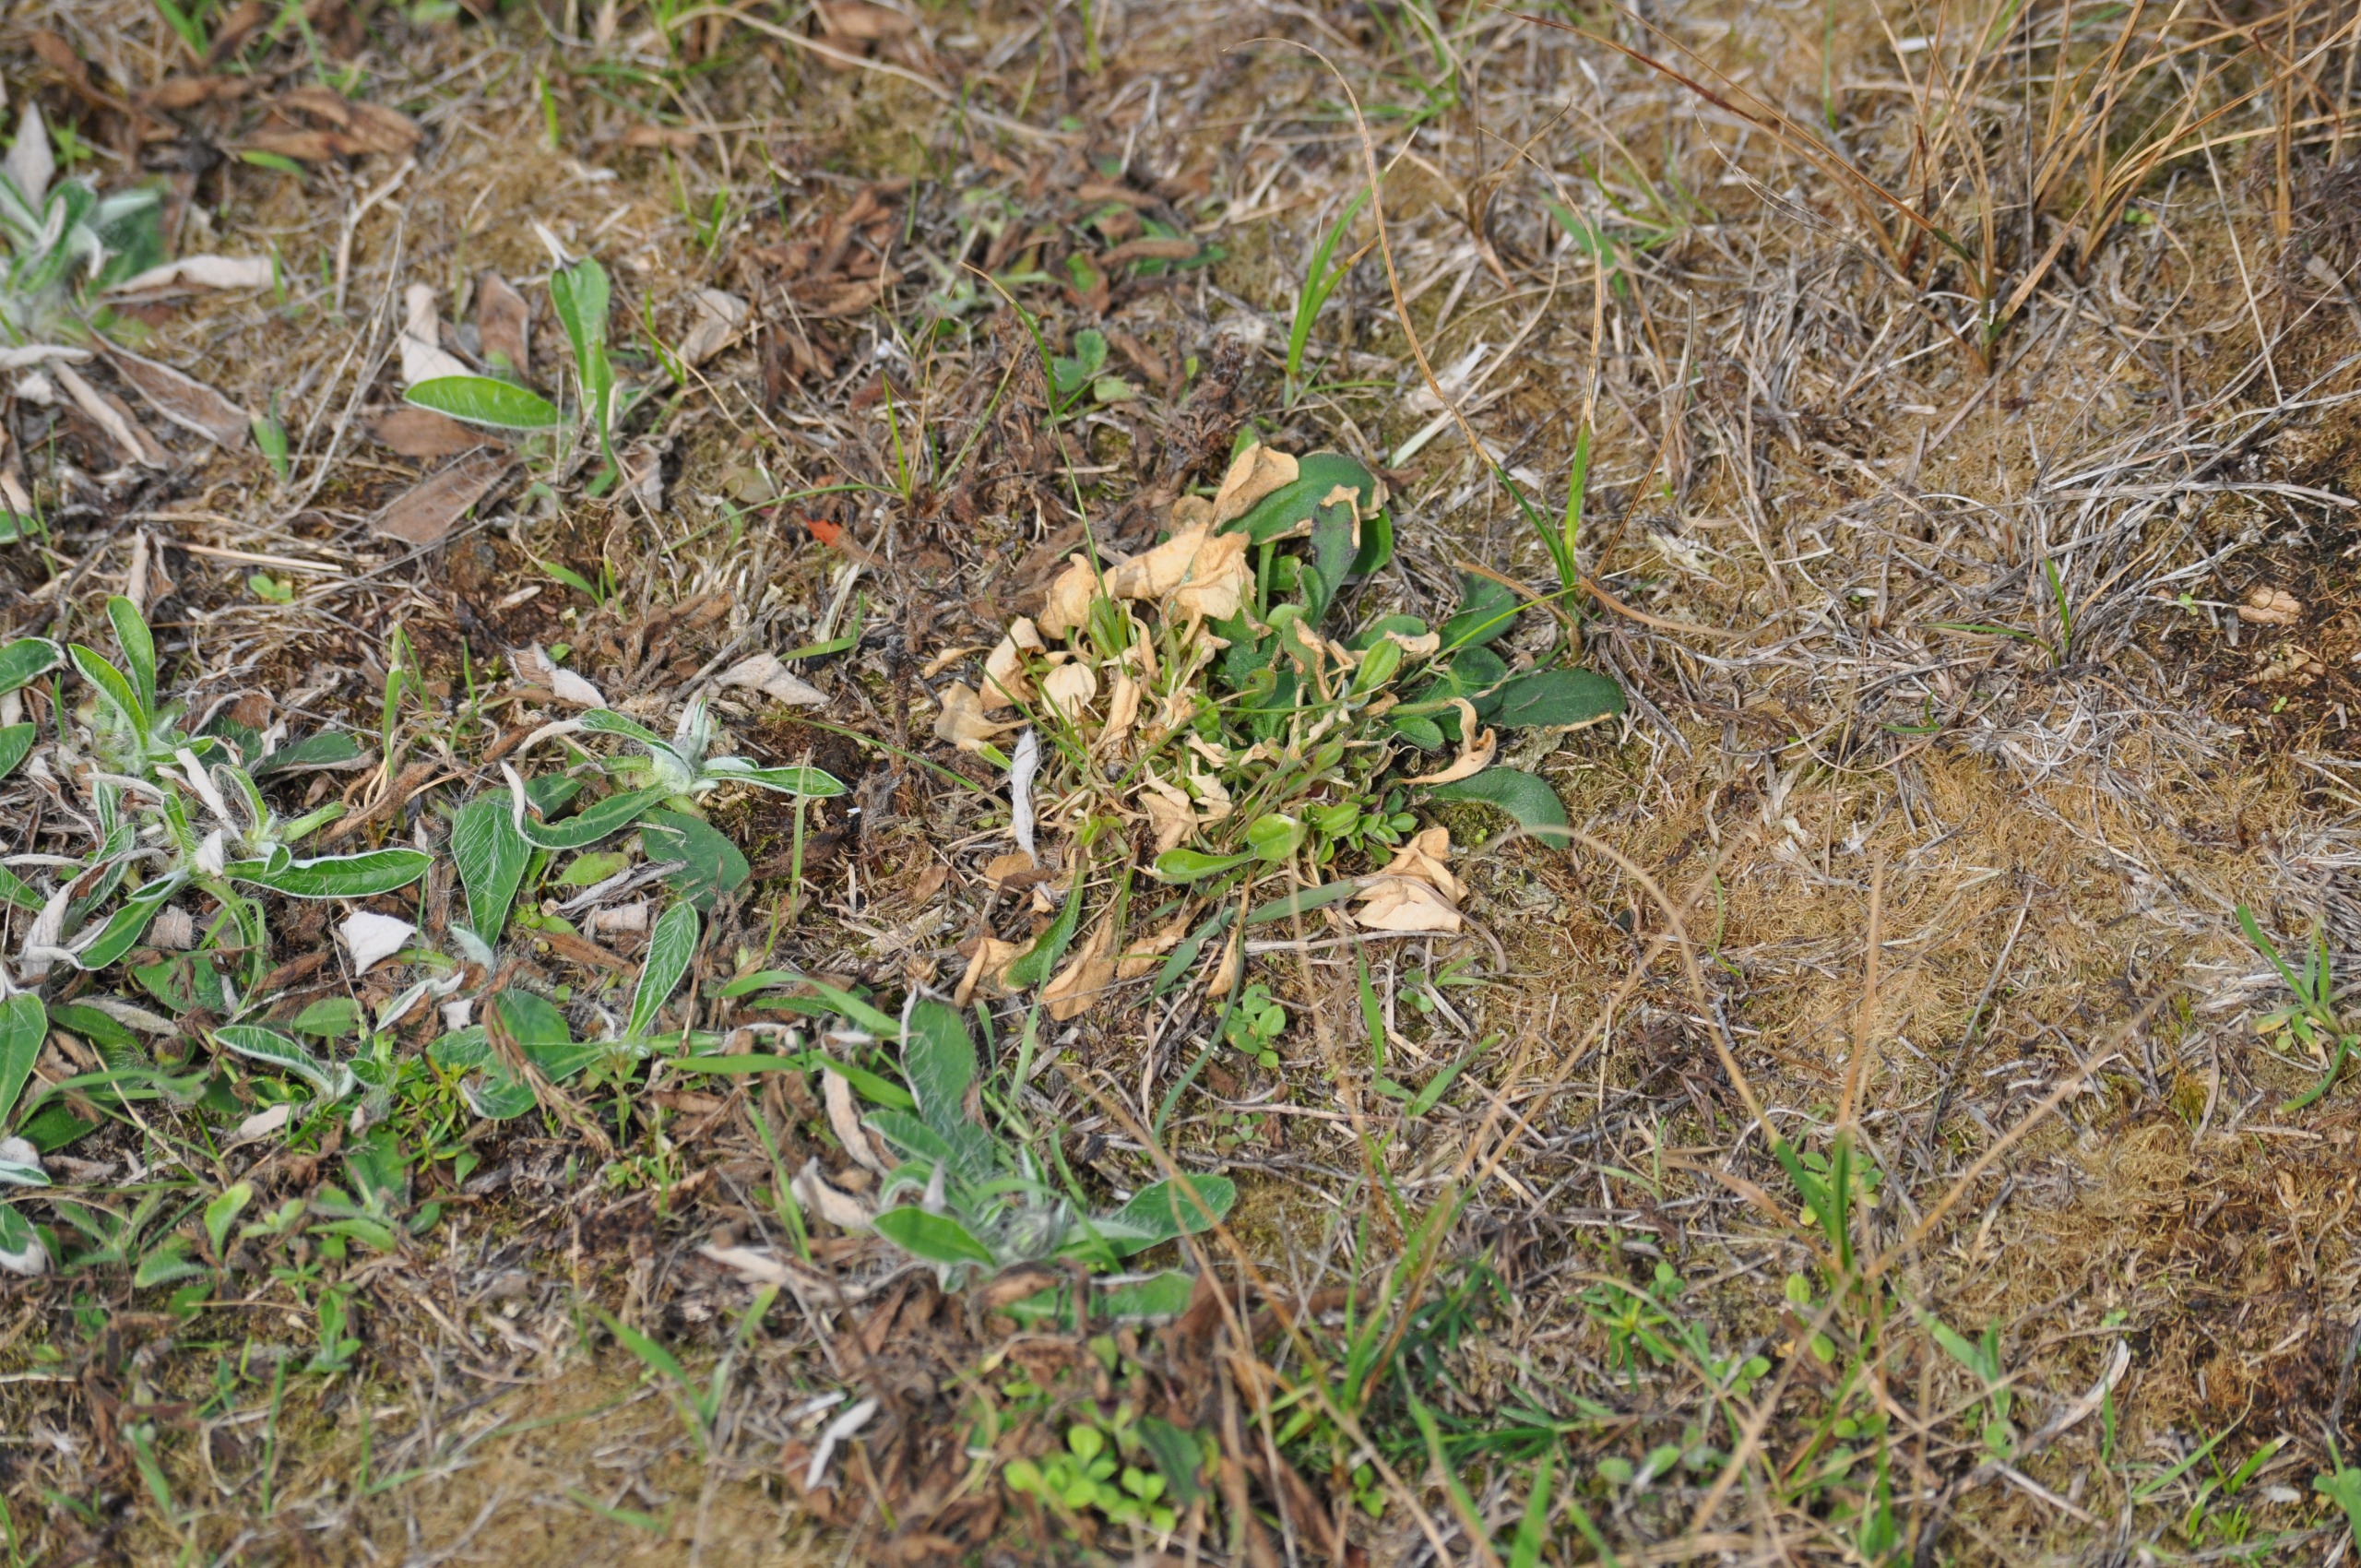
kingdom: Plantae
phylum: Tracheophyta
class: Magnoliopsida
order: Caryophyllales
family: Caryophyllaceae
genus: Silene
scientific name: Silene nutans
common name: Nikkende limurt
